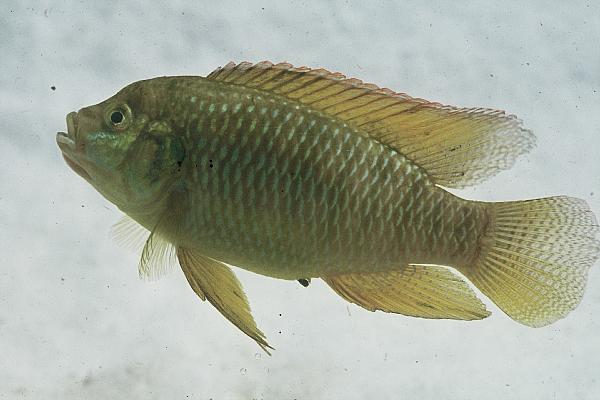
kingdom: Animalia
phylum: Chordata
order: Perciformes
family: Cichlidae
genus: Tilapia
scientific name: Tilapia ruweti
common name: Okavango tilapia
